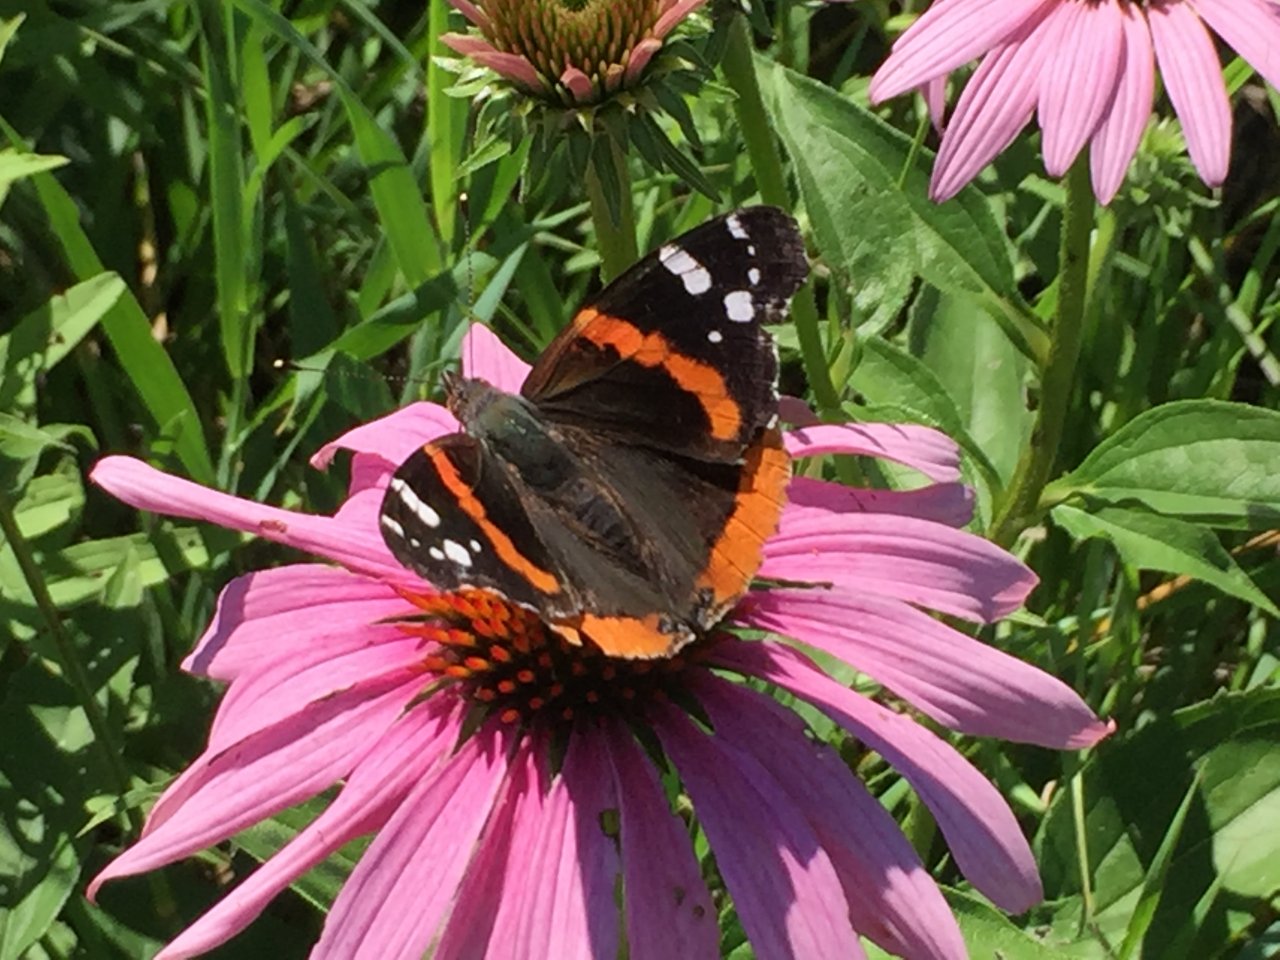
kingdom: Animalia
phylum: Arthropoda
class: Insecta
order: Lepidoptera
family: Nymphalidae
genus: Vanessa
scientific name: Vanessa atalanta
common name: Red Admiral
